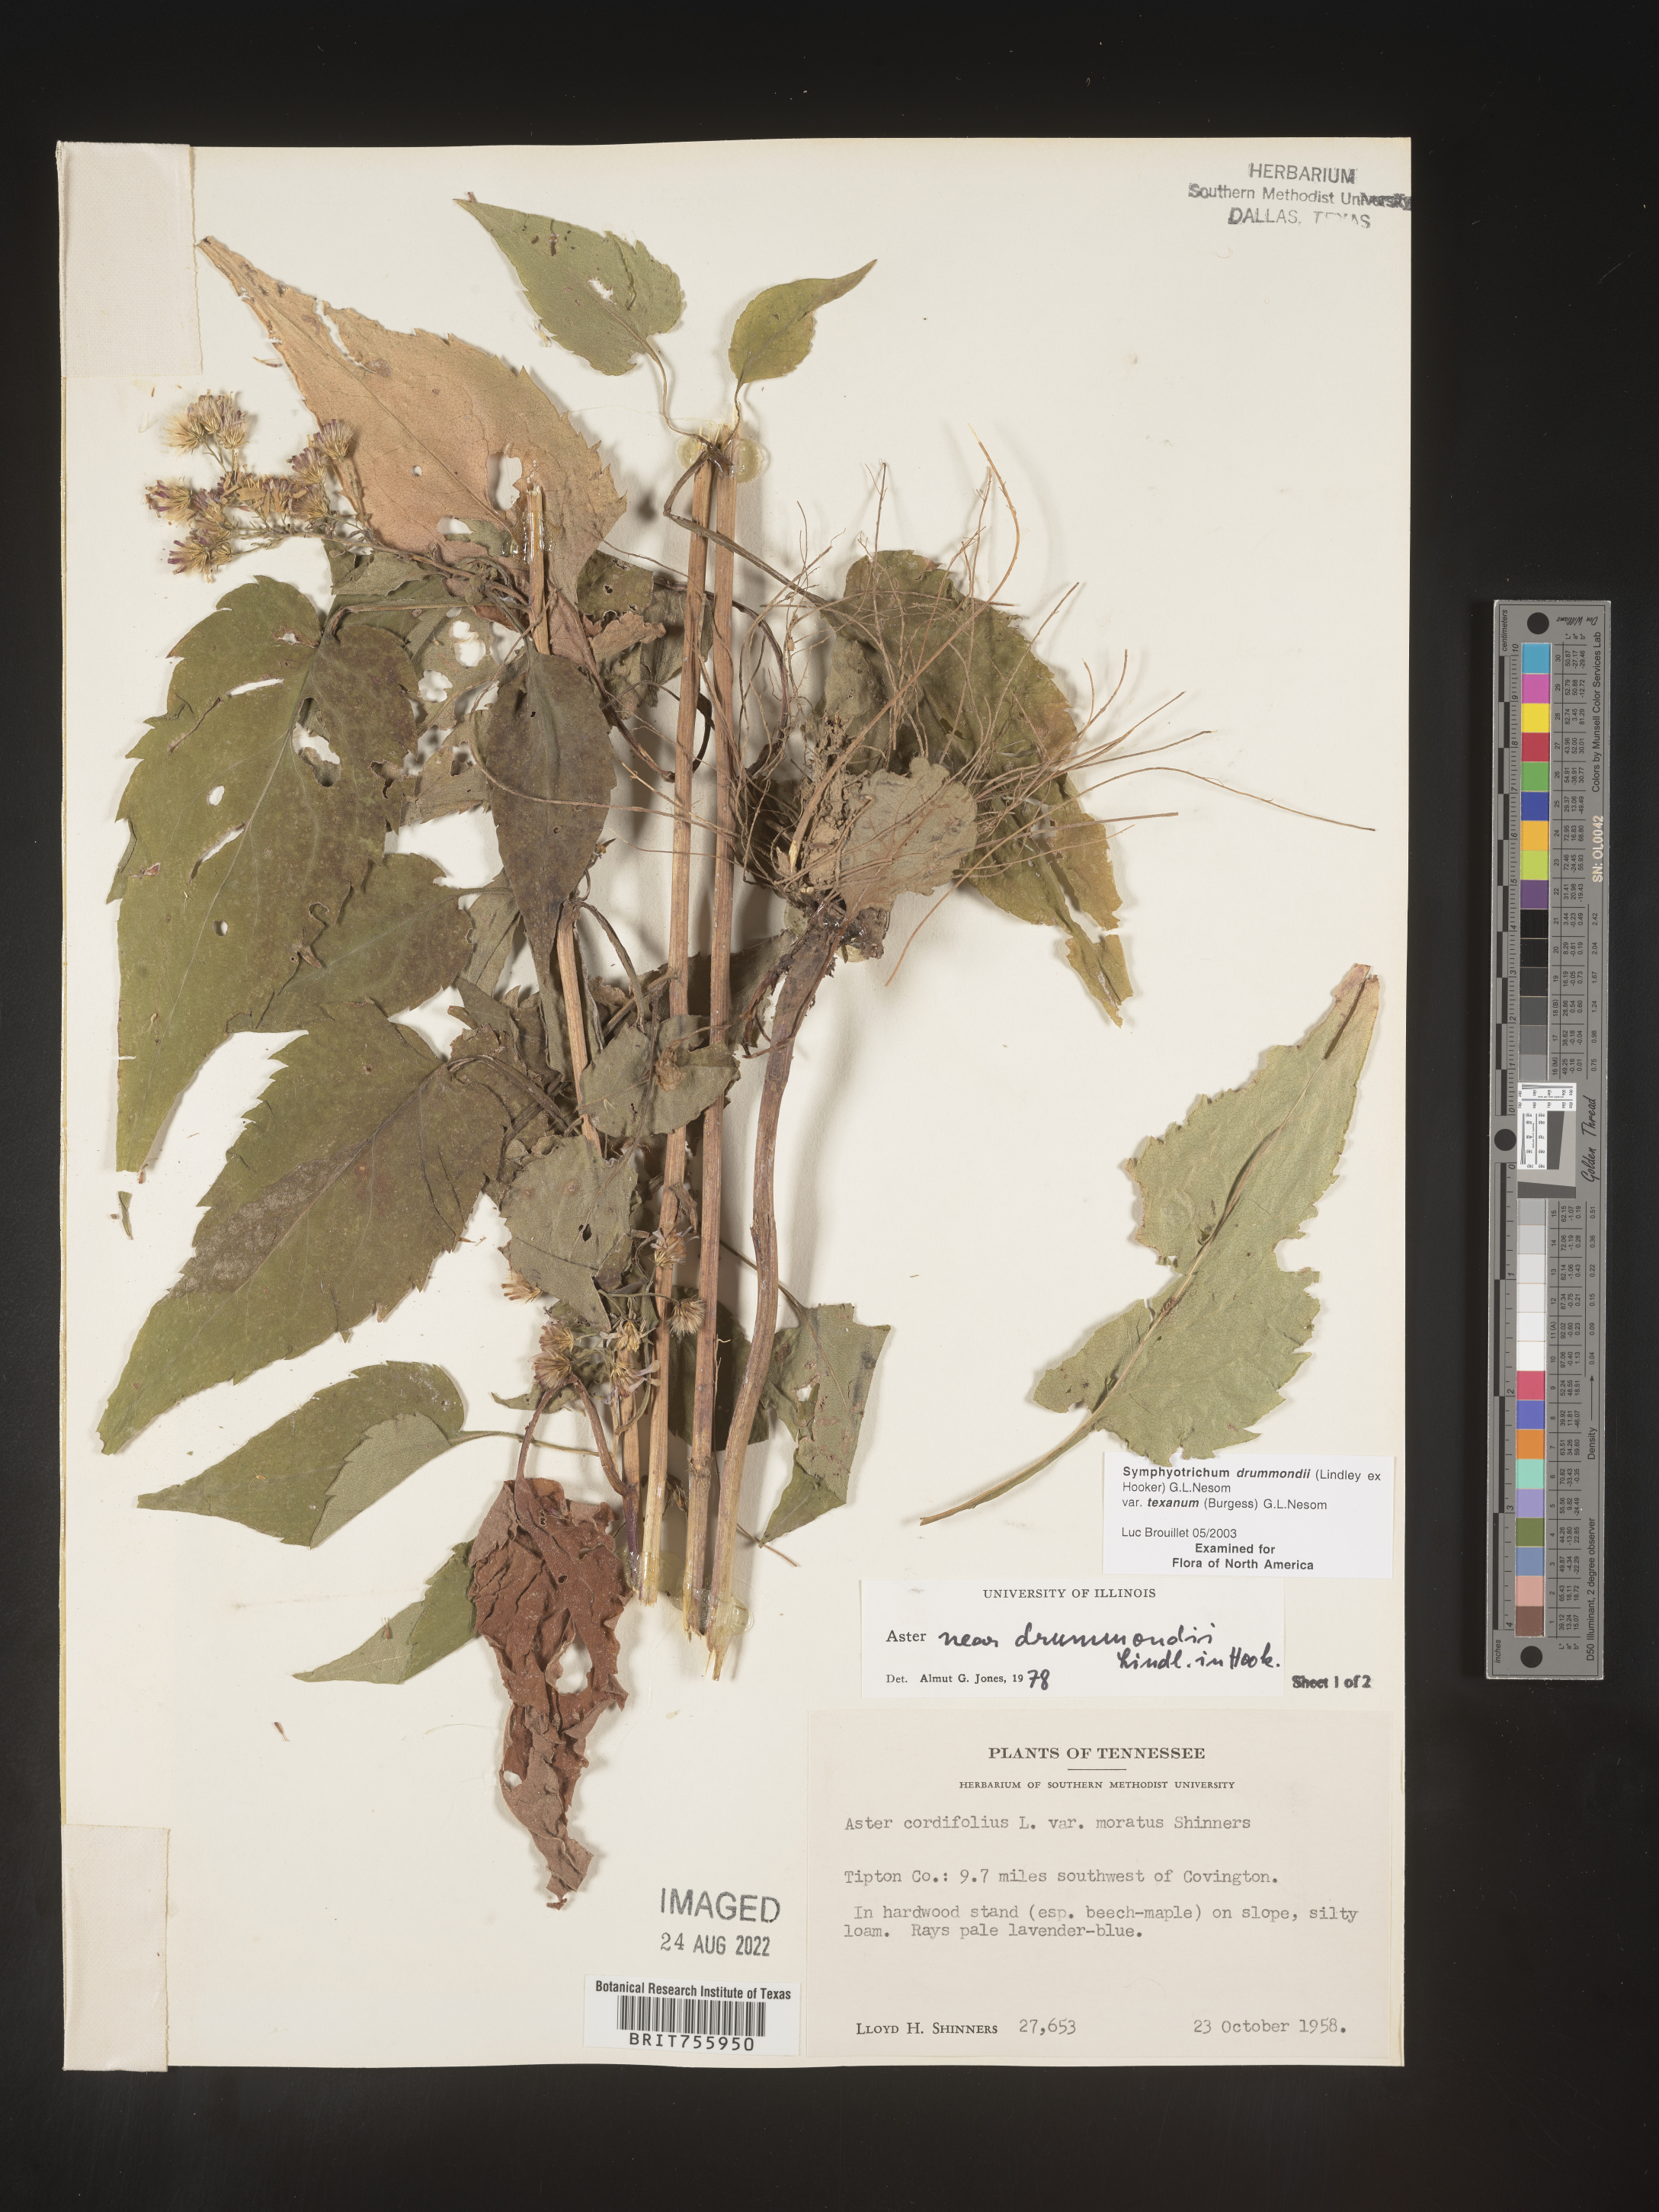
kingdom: Plantae
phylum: Tracheophyta
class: Magnoliopsida
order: Asterales
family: Asteraceae
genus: Symphyotrichum
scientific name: Symphyotrichum drummondii
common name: Drummond's aster
